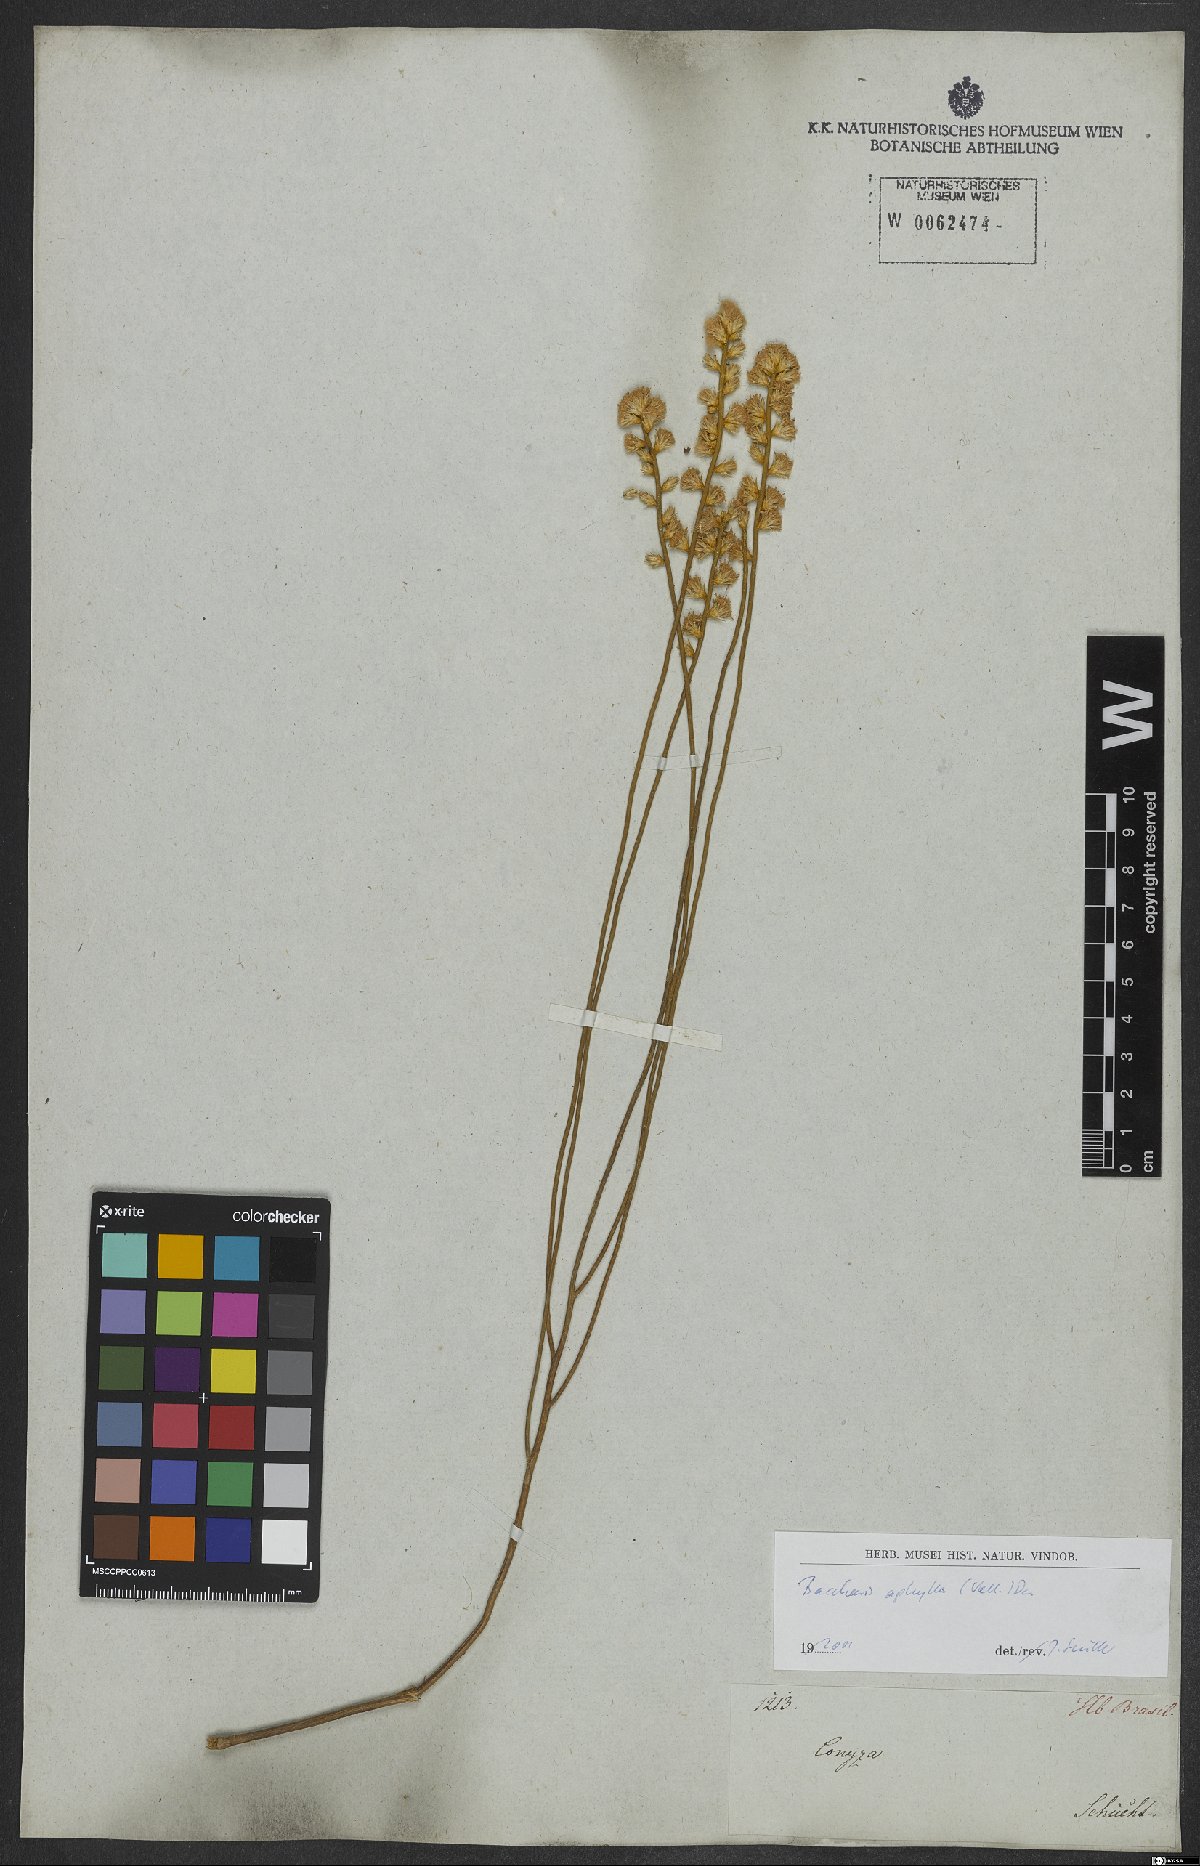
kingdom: Plantae
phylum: Tracheophyta
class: Magnoliopsida
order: Asterales
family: Asteraceae
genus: Baccharis
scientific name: Baccharis aphylla
